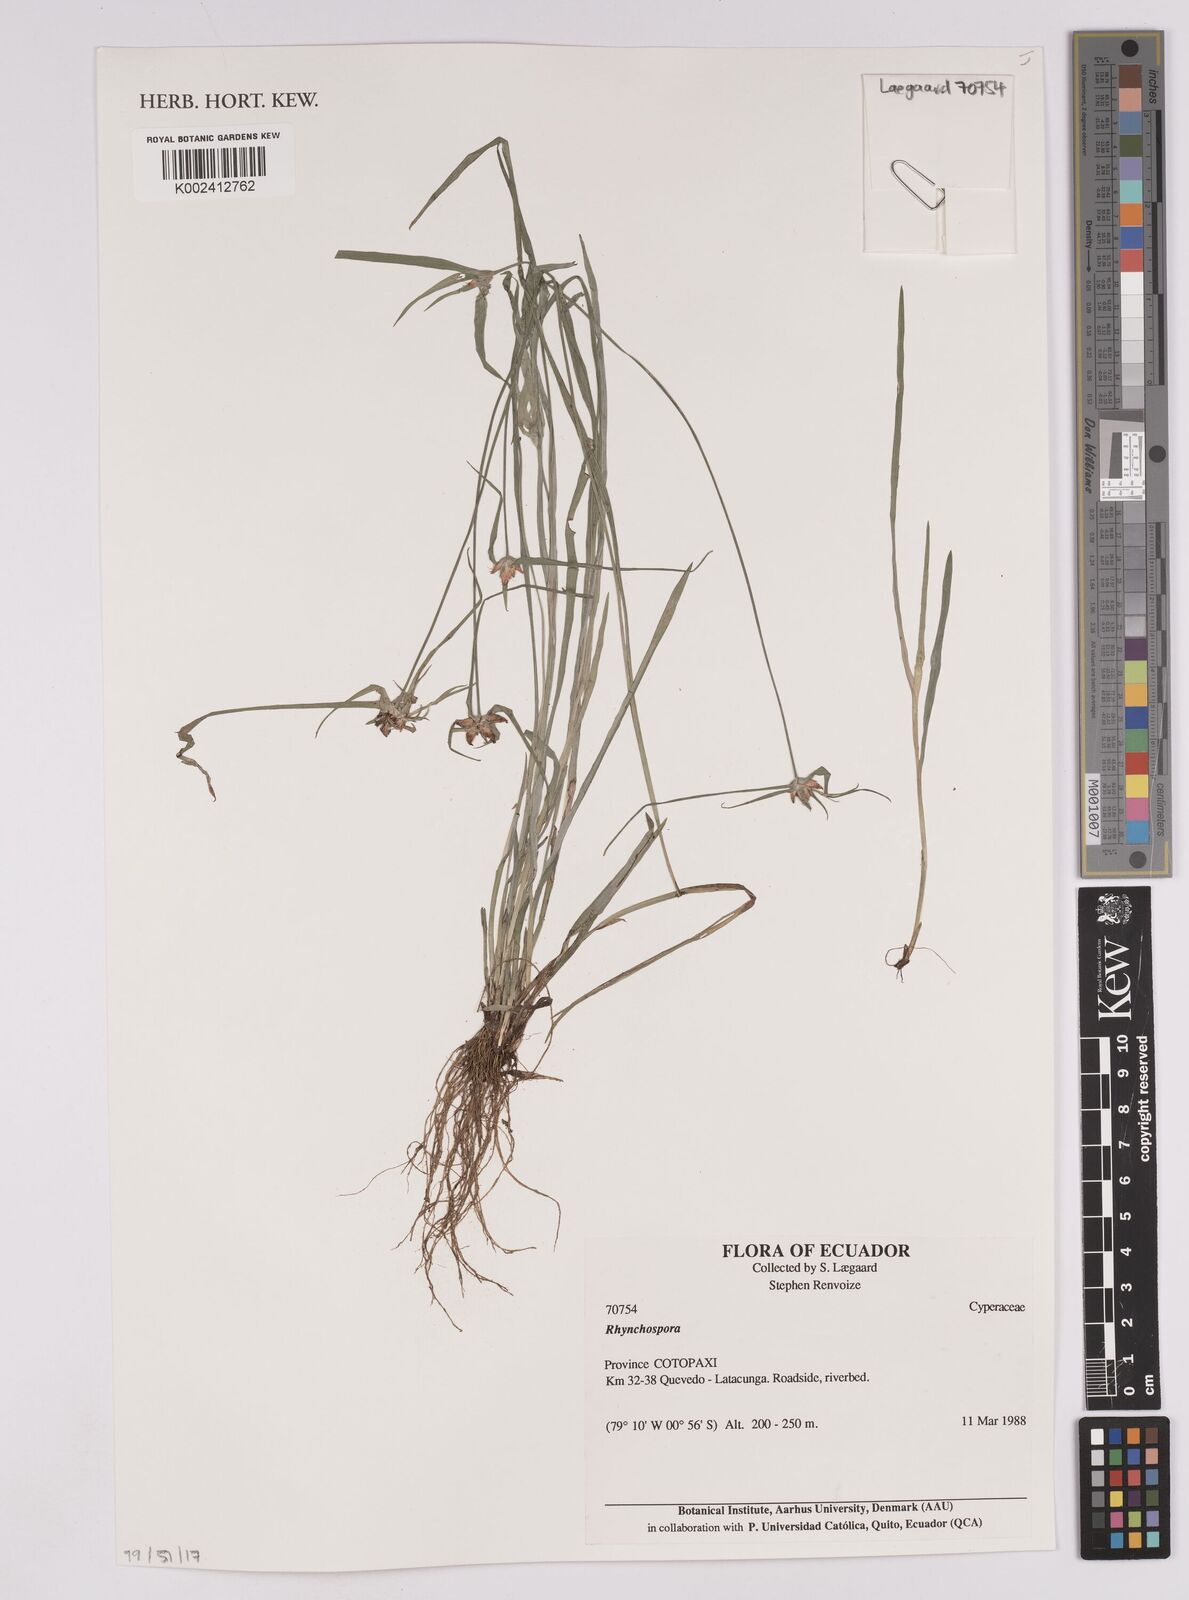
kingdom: Plantae
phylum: Tracheophyta
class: Liliopsida
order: Poales
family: Cyperaceae
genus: Rhynchospora
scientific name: Rhynchospora
